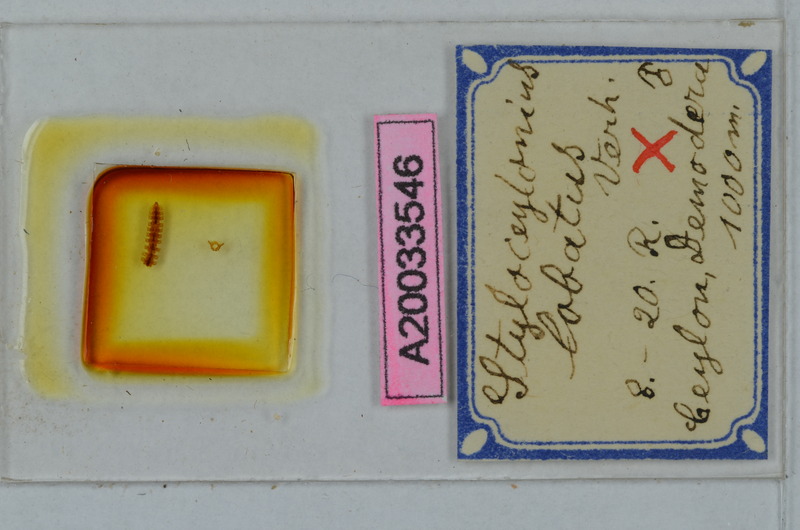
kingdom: Animalia
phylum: Arthropoda
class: Diplopoda
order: Polydesmida
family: Pyrgodesmidae
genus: Styloceylonius
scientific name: Styloceylonius lobatus
